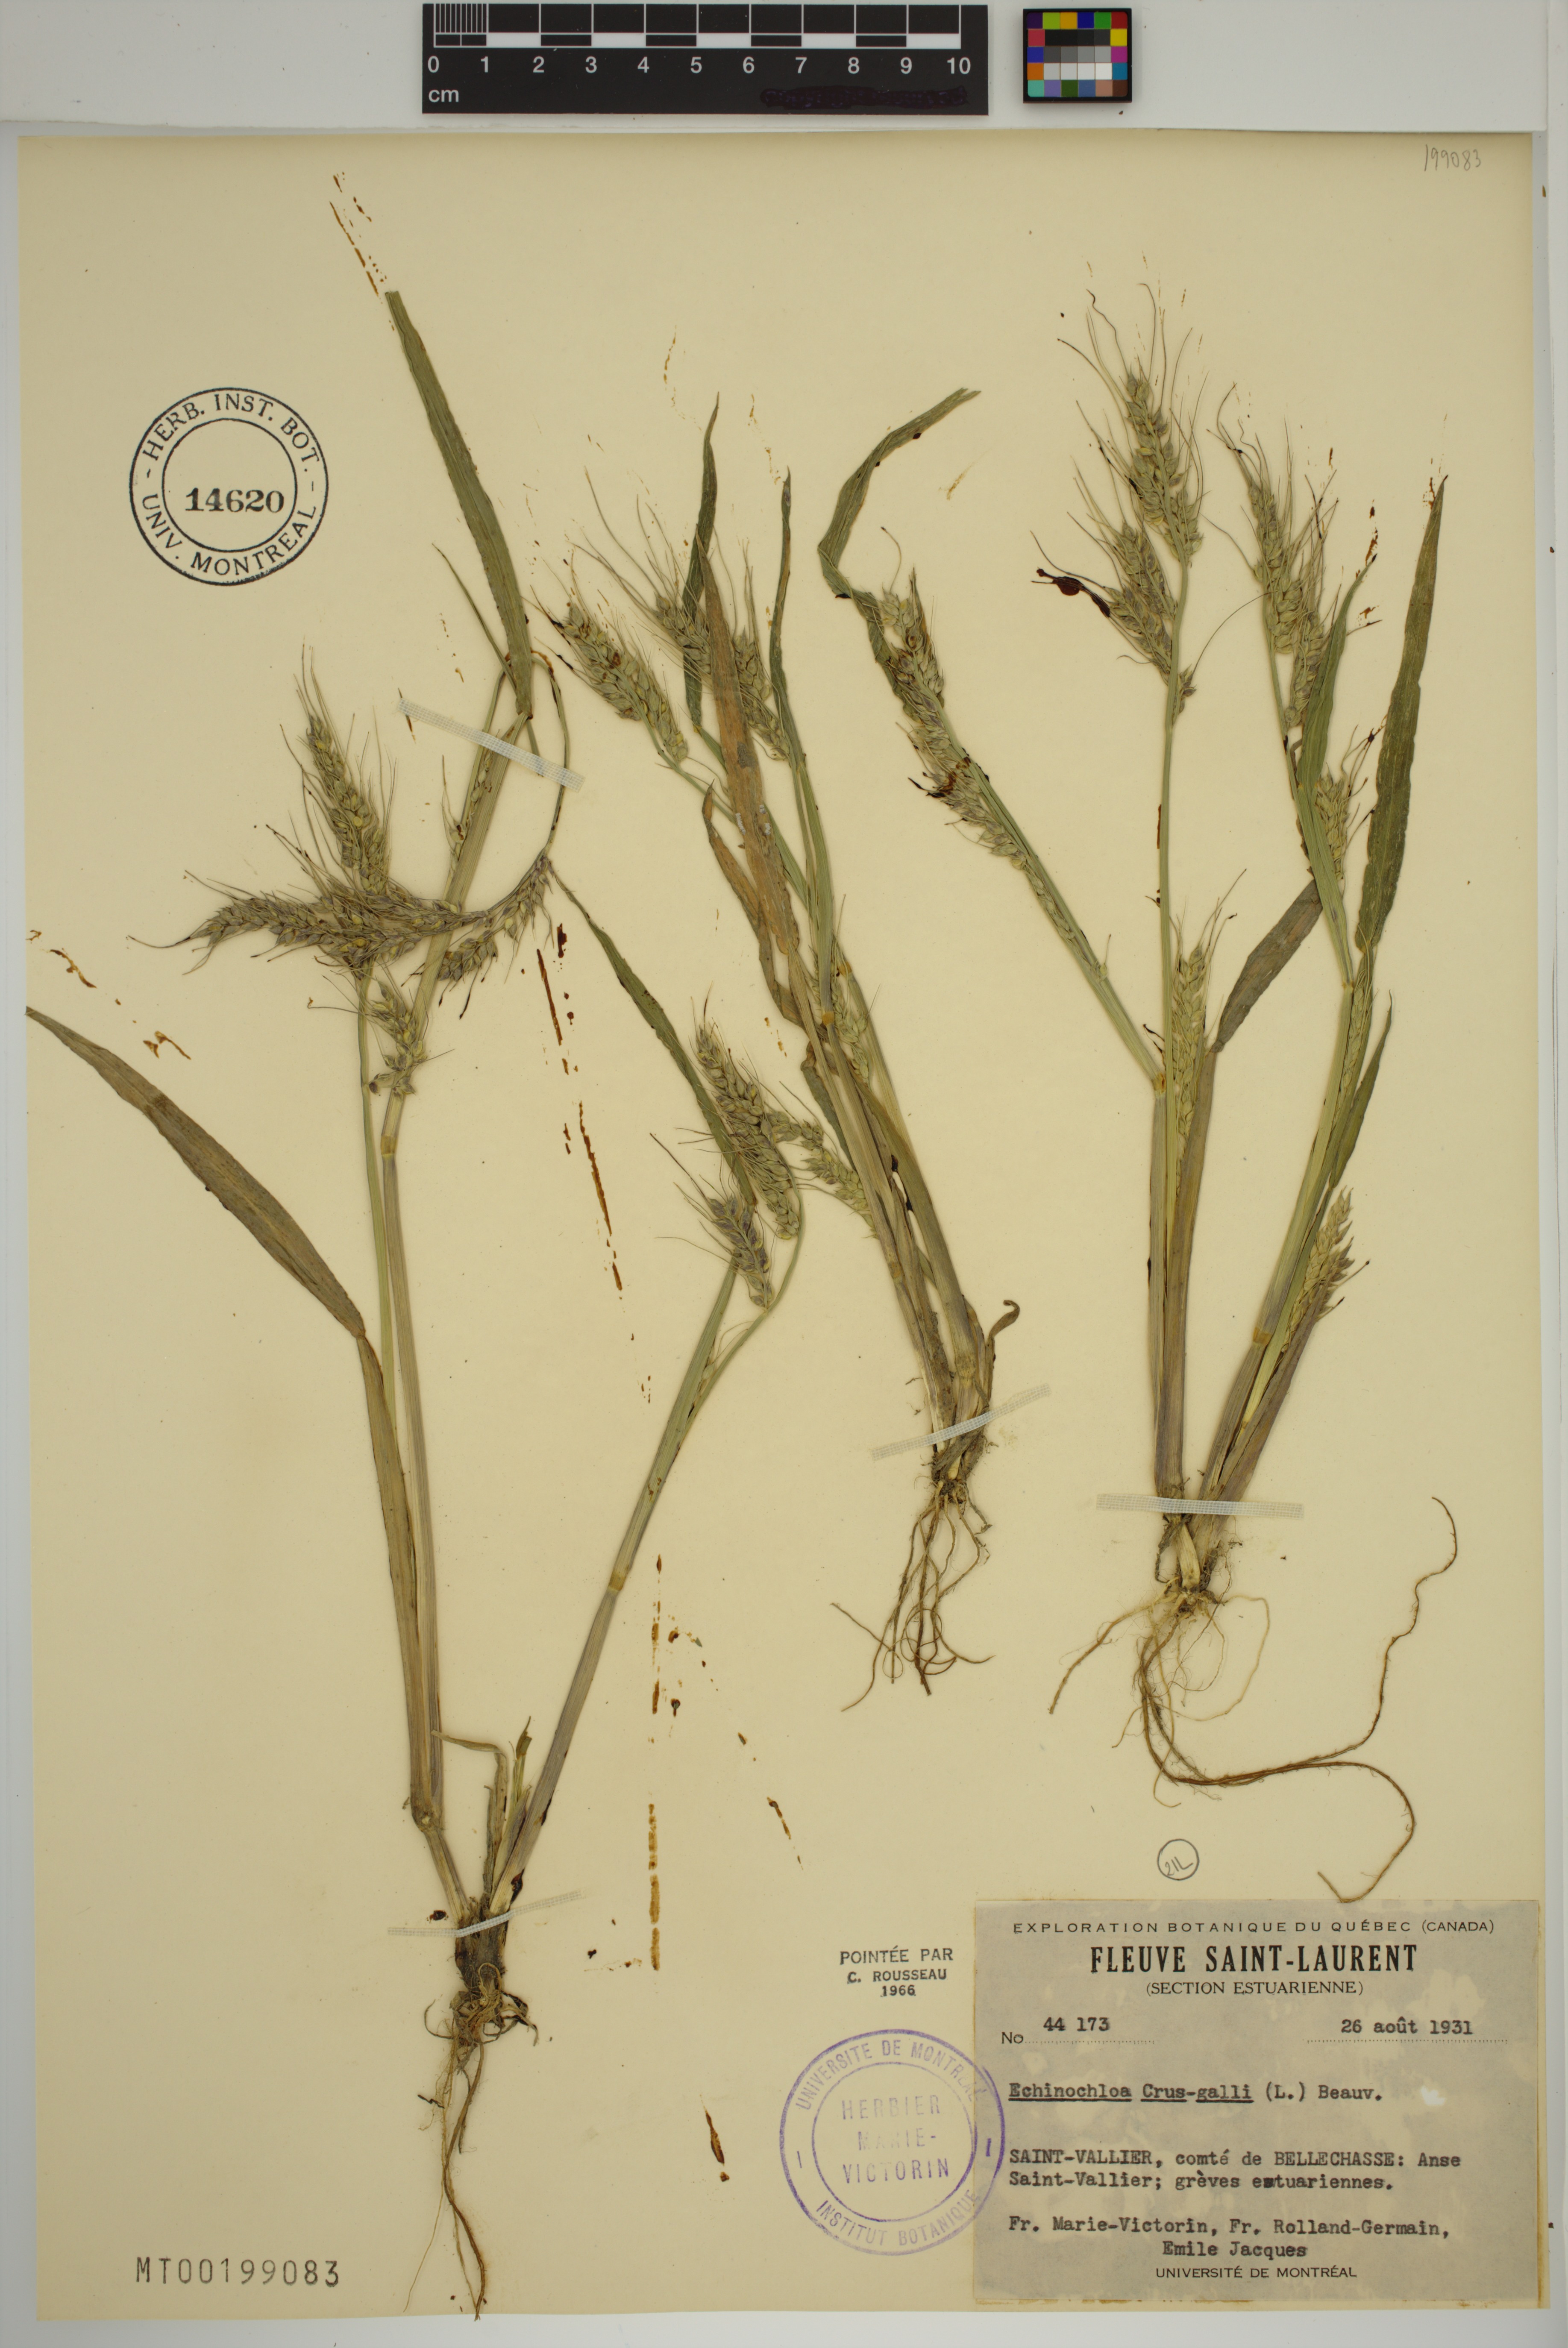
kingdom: Plantae
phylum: Tracheophyta
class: Liliopsida
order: Poales
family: Poaceae
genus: Echinochloa
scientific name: Echinochloa crus-galli
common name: Cockspur
